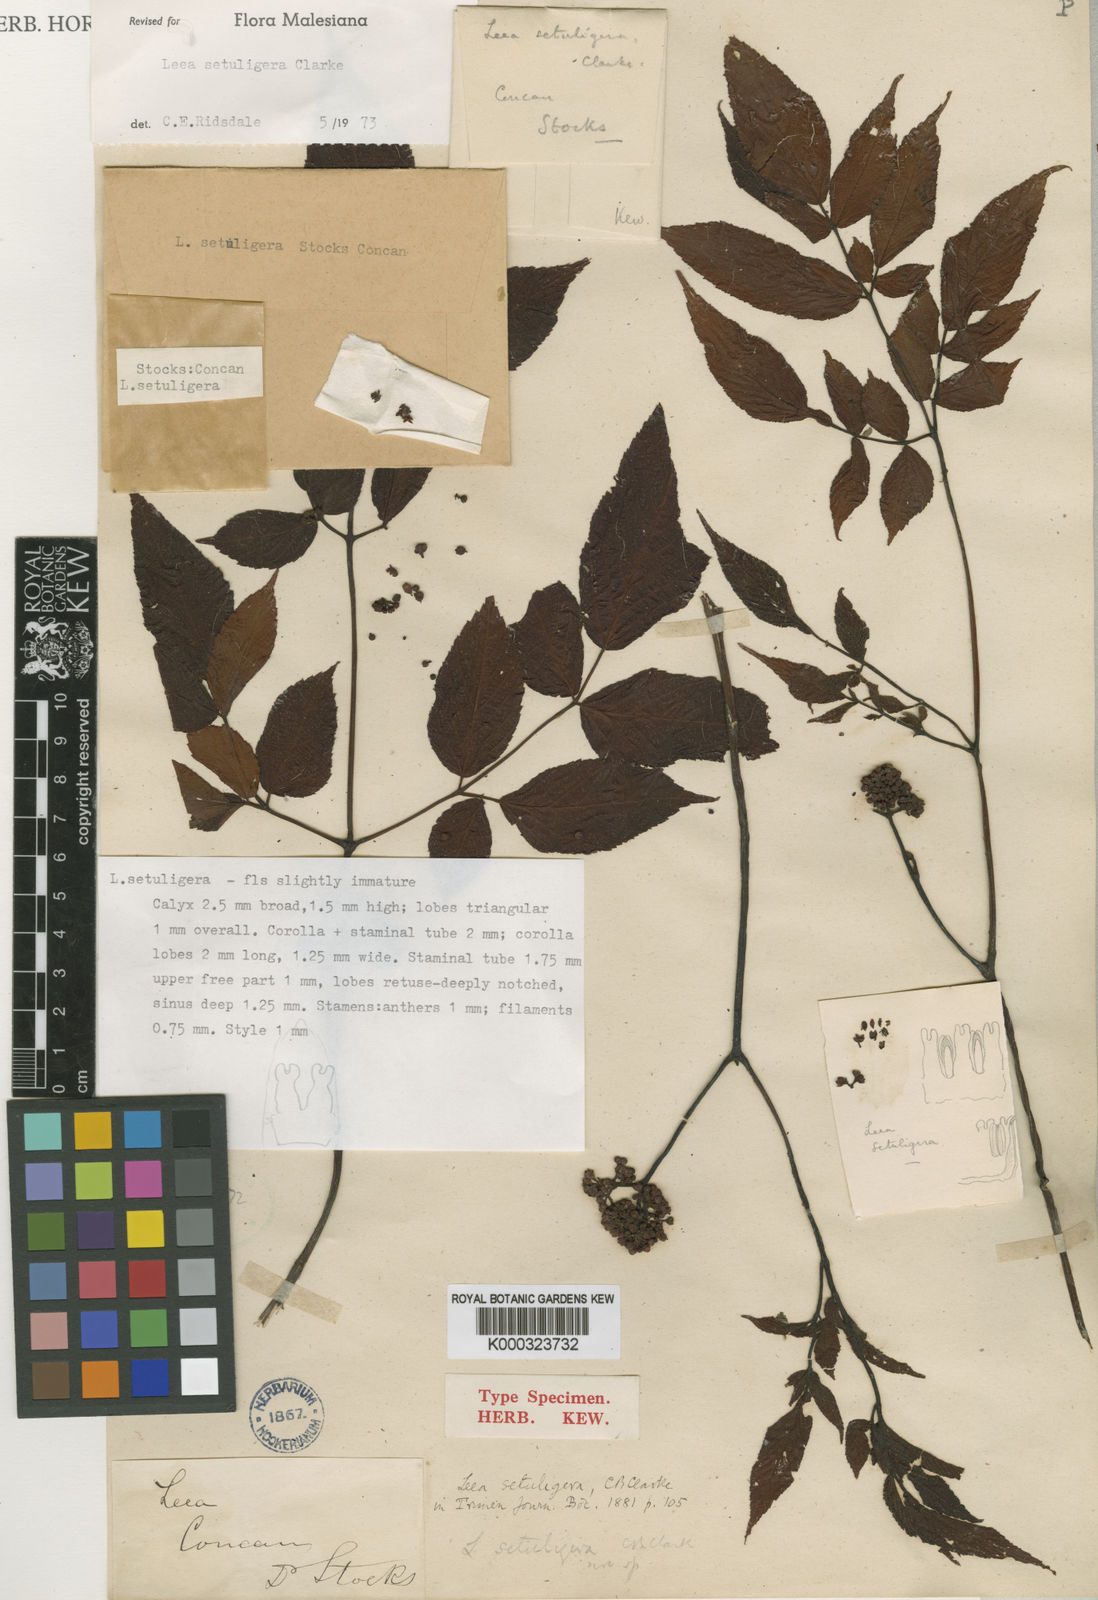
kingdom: Plantae
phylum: Tracheophyta
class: Magnoliopsida
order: Vitales
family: Vitaceae
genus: Leea
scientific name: Leea setuligera
